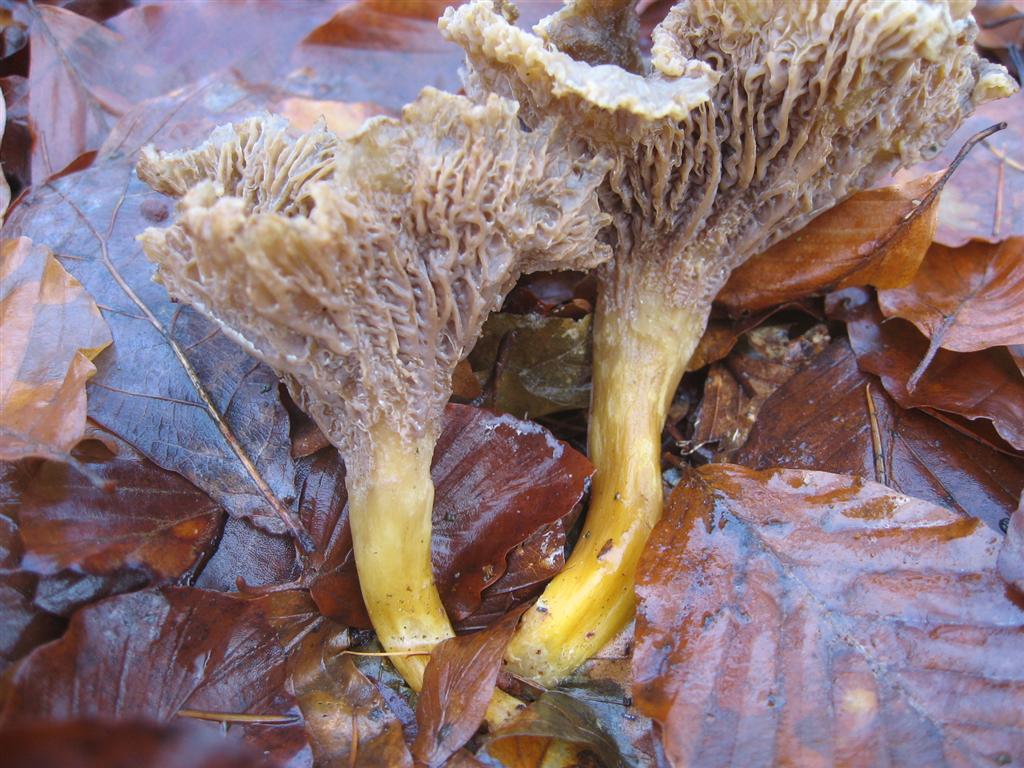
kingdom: Fungi
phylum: Basidiomycota
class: Agaricomycetes
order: Cantharellales
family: Hydnaceae
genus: Craterellus
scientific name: Craterellus tubaeformis
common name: tragt-kantarel
